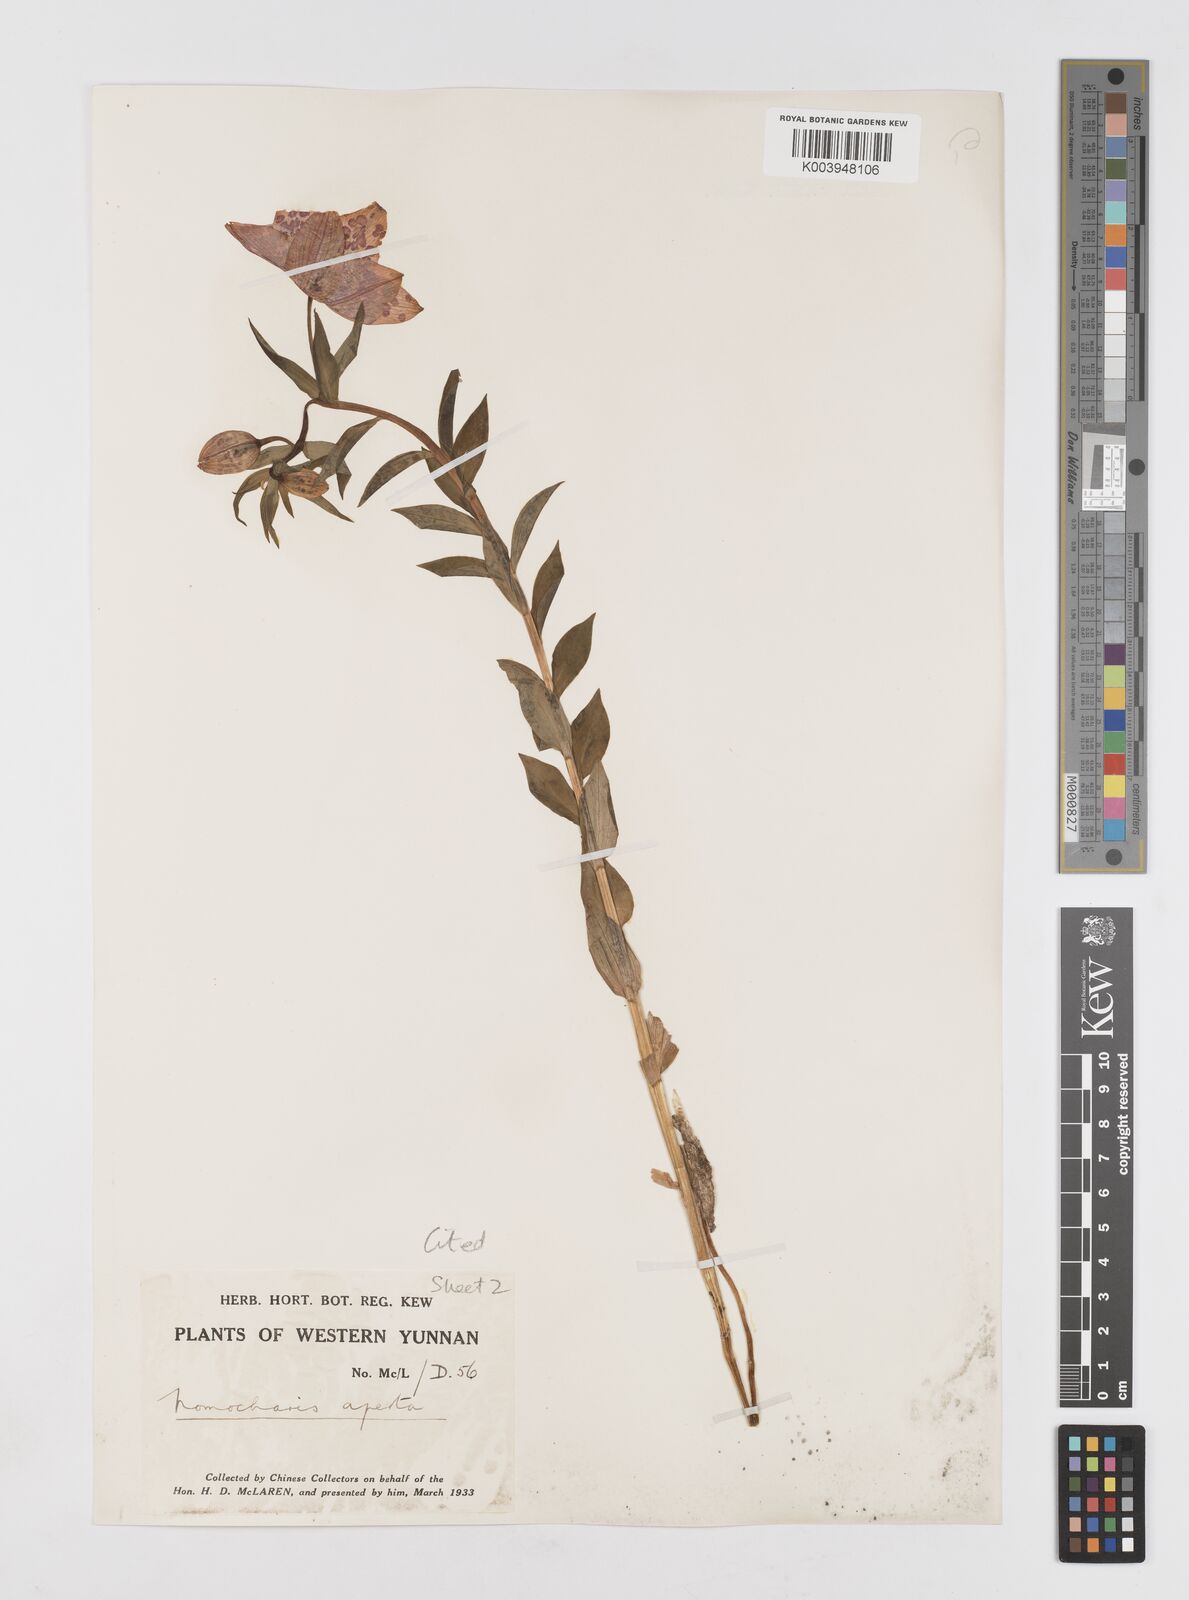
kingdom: Plantae
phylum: Tracheophyta
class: Liliopsida
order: Liliales
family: Liliaceae
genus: Lilium
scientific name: Lilium apertum
